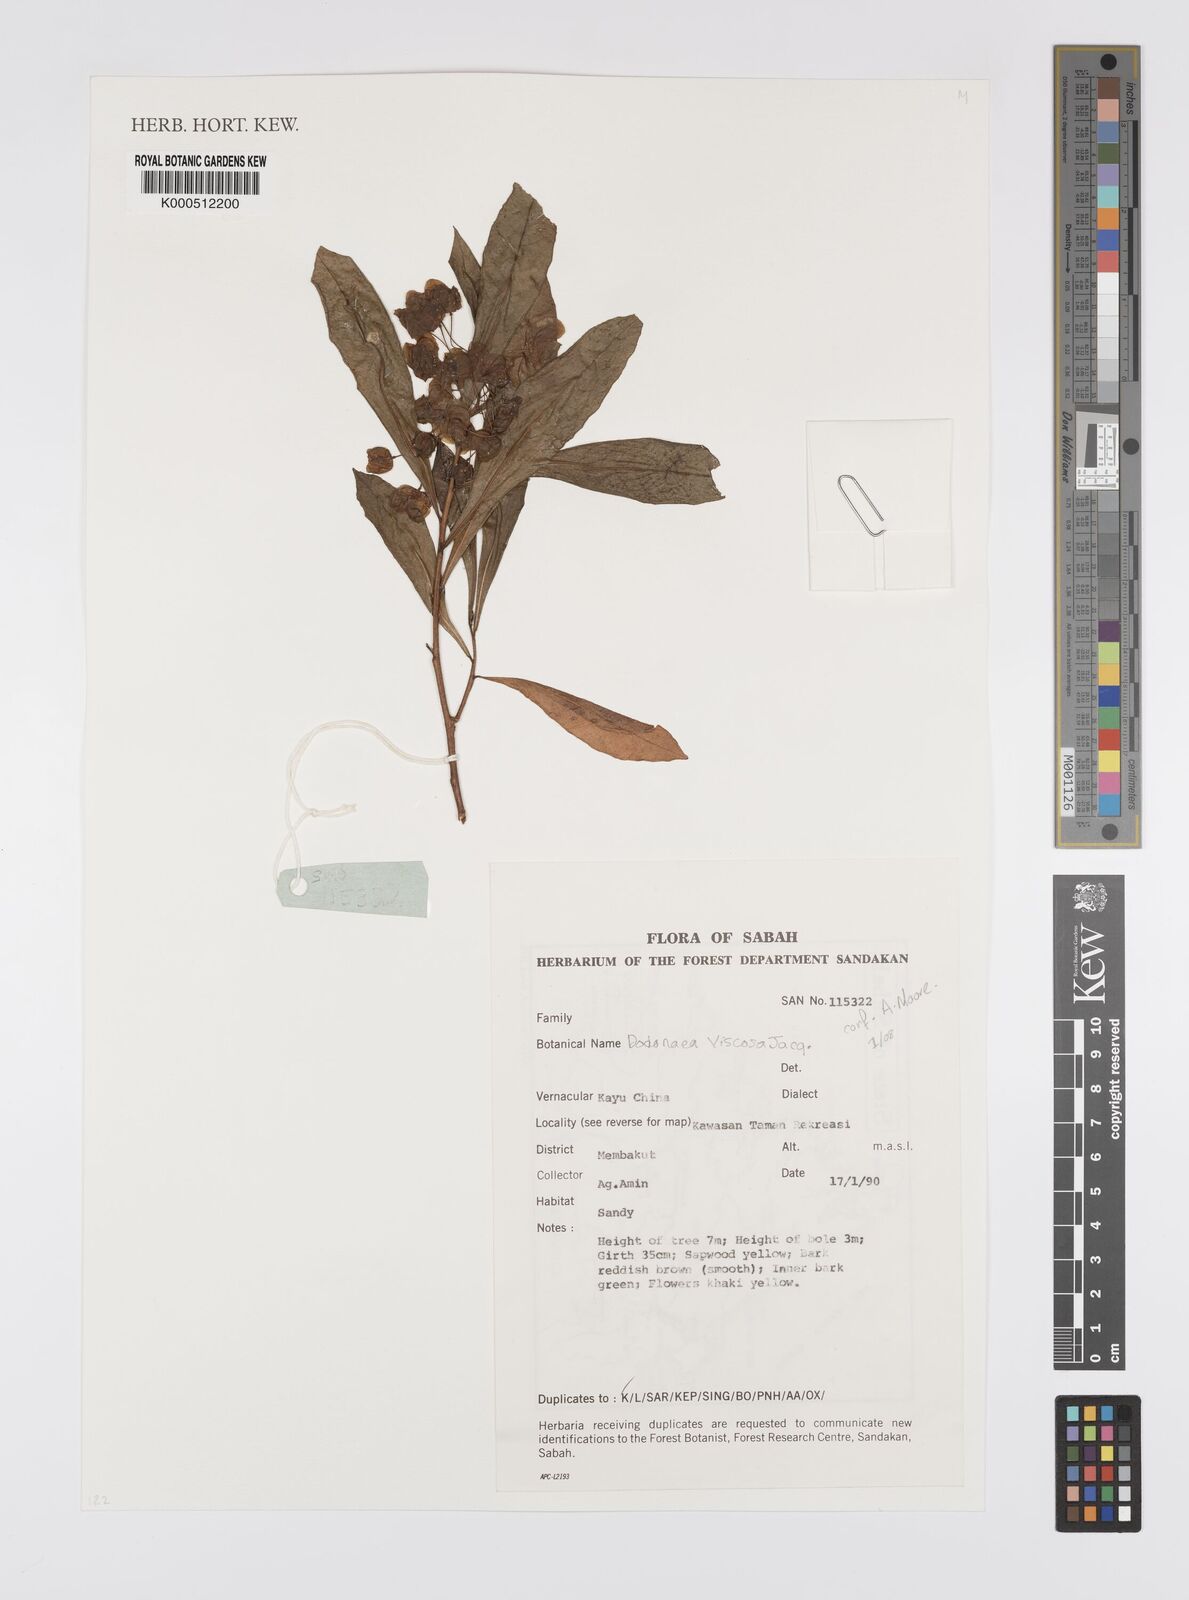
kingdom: Plantae
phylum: Tracheophyta
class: Magnoliopsida
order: Sapindales
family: Sapindaceae
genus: Dodonaea
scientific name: Dodonaea viscosa
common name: Hopbush
